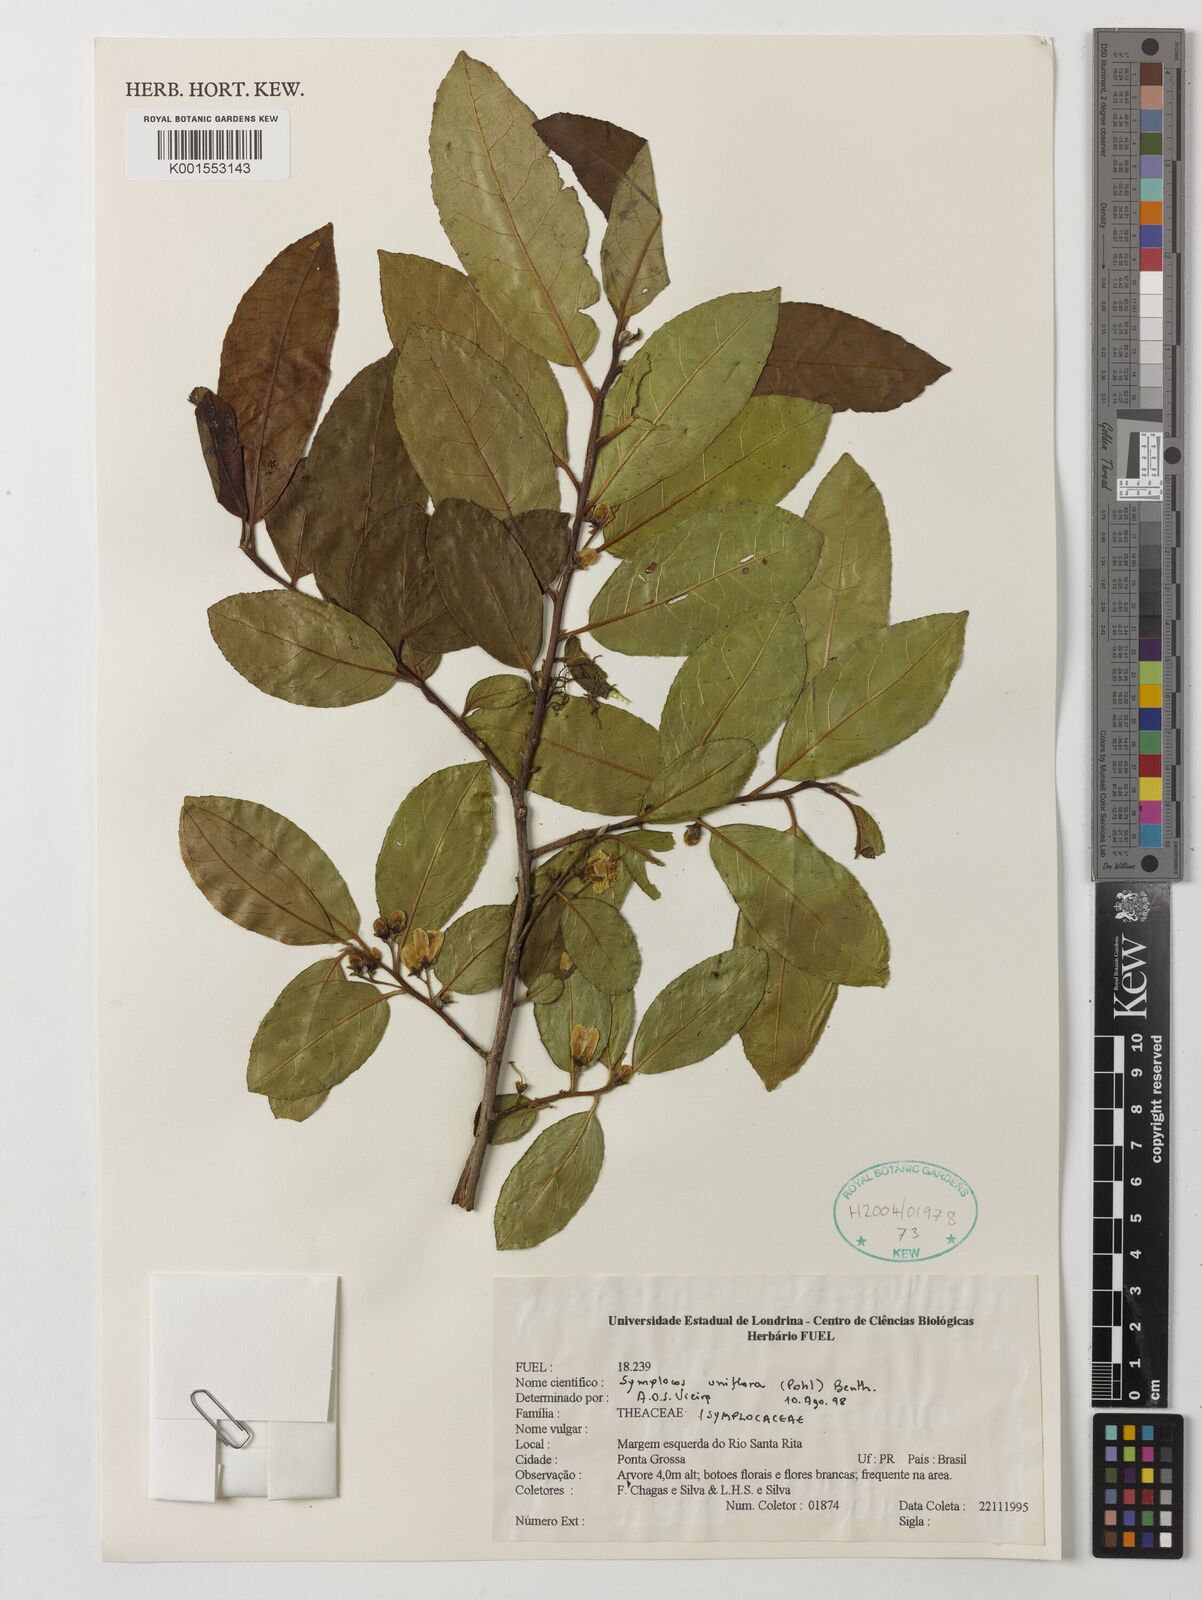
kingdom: Plantae
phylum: Tracheophyta
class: Magnoliopsida
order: Ericales
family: Symplocaceae
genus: Symplocos
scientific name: Symplocos uniflora
